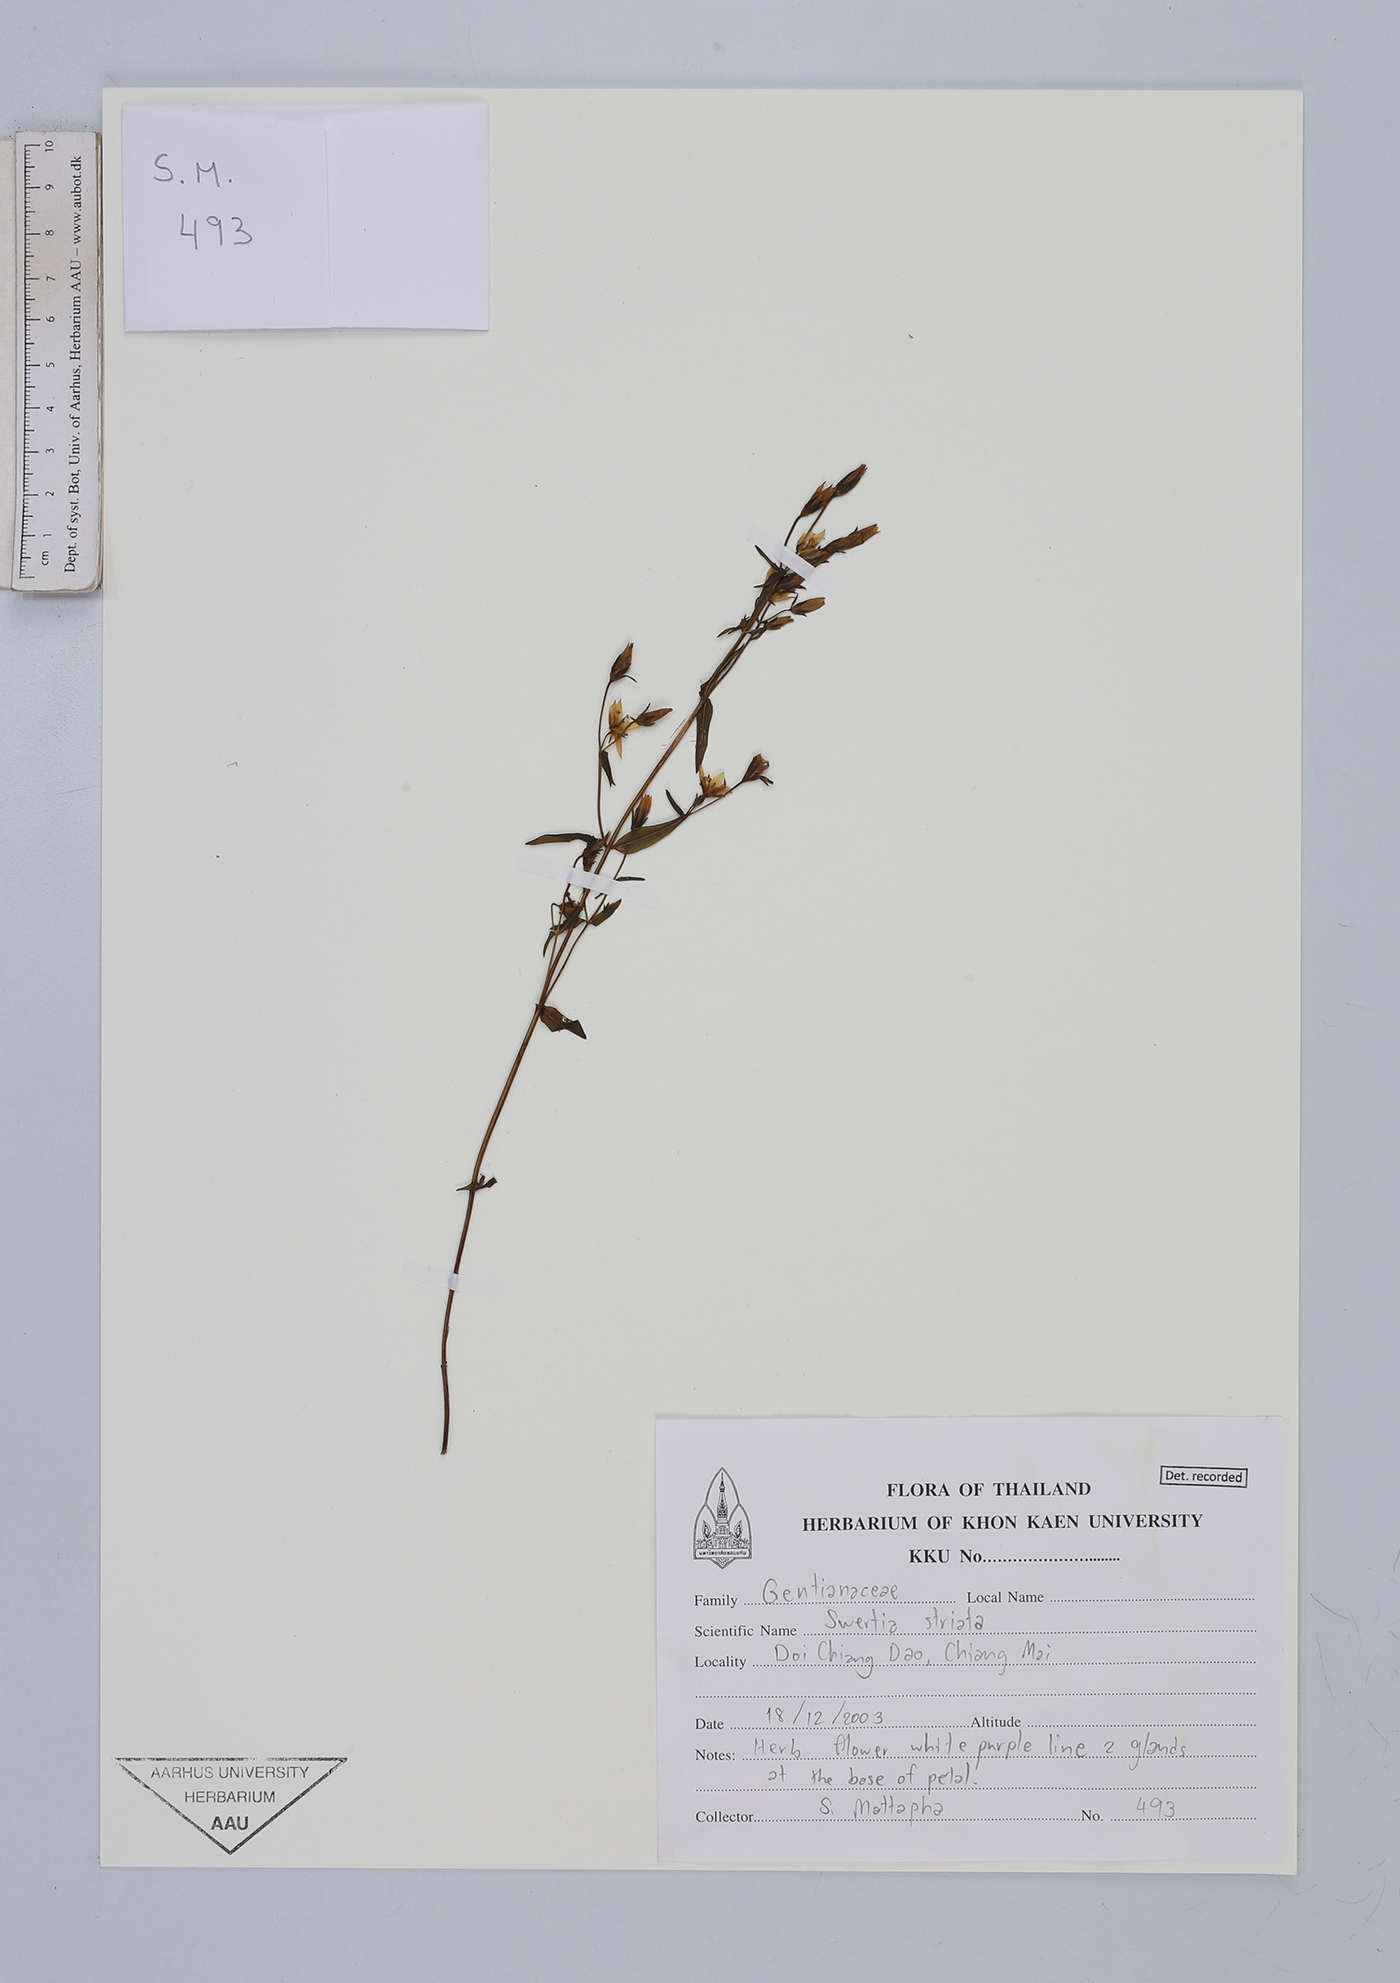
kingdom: Plantae
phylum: Tracheophyta
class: Magnoliopsida
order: Gentianales
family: Gentianaceae
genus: Swertia
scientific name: Swertia striata
